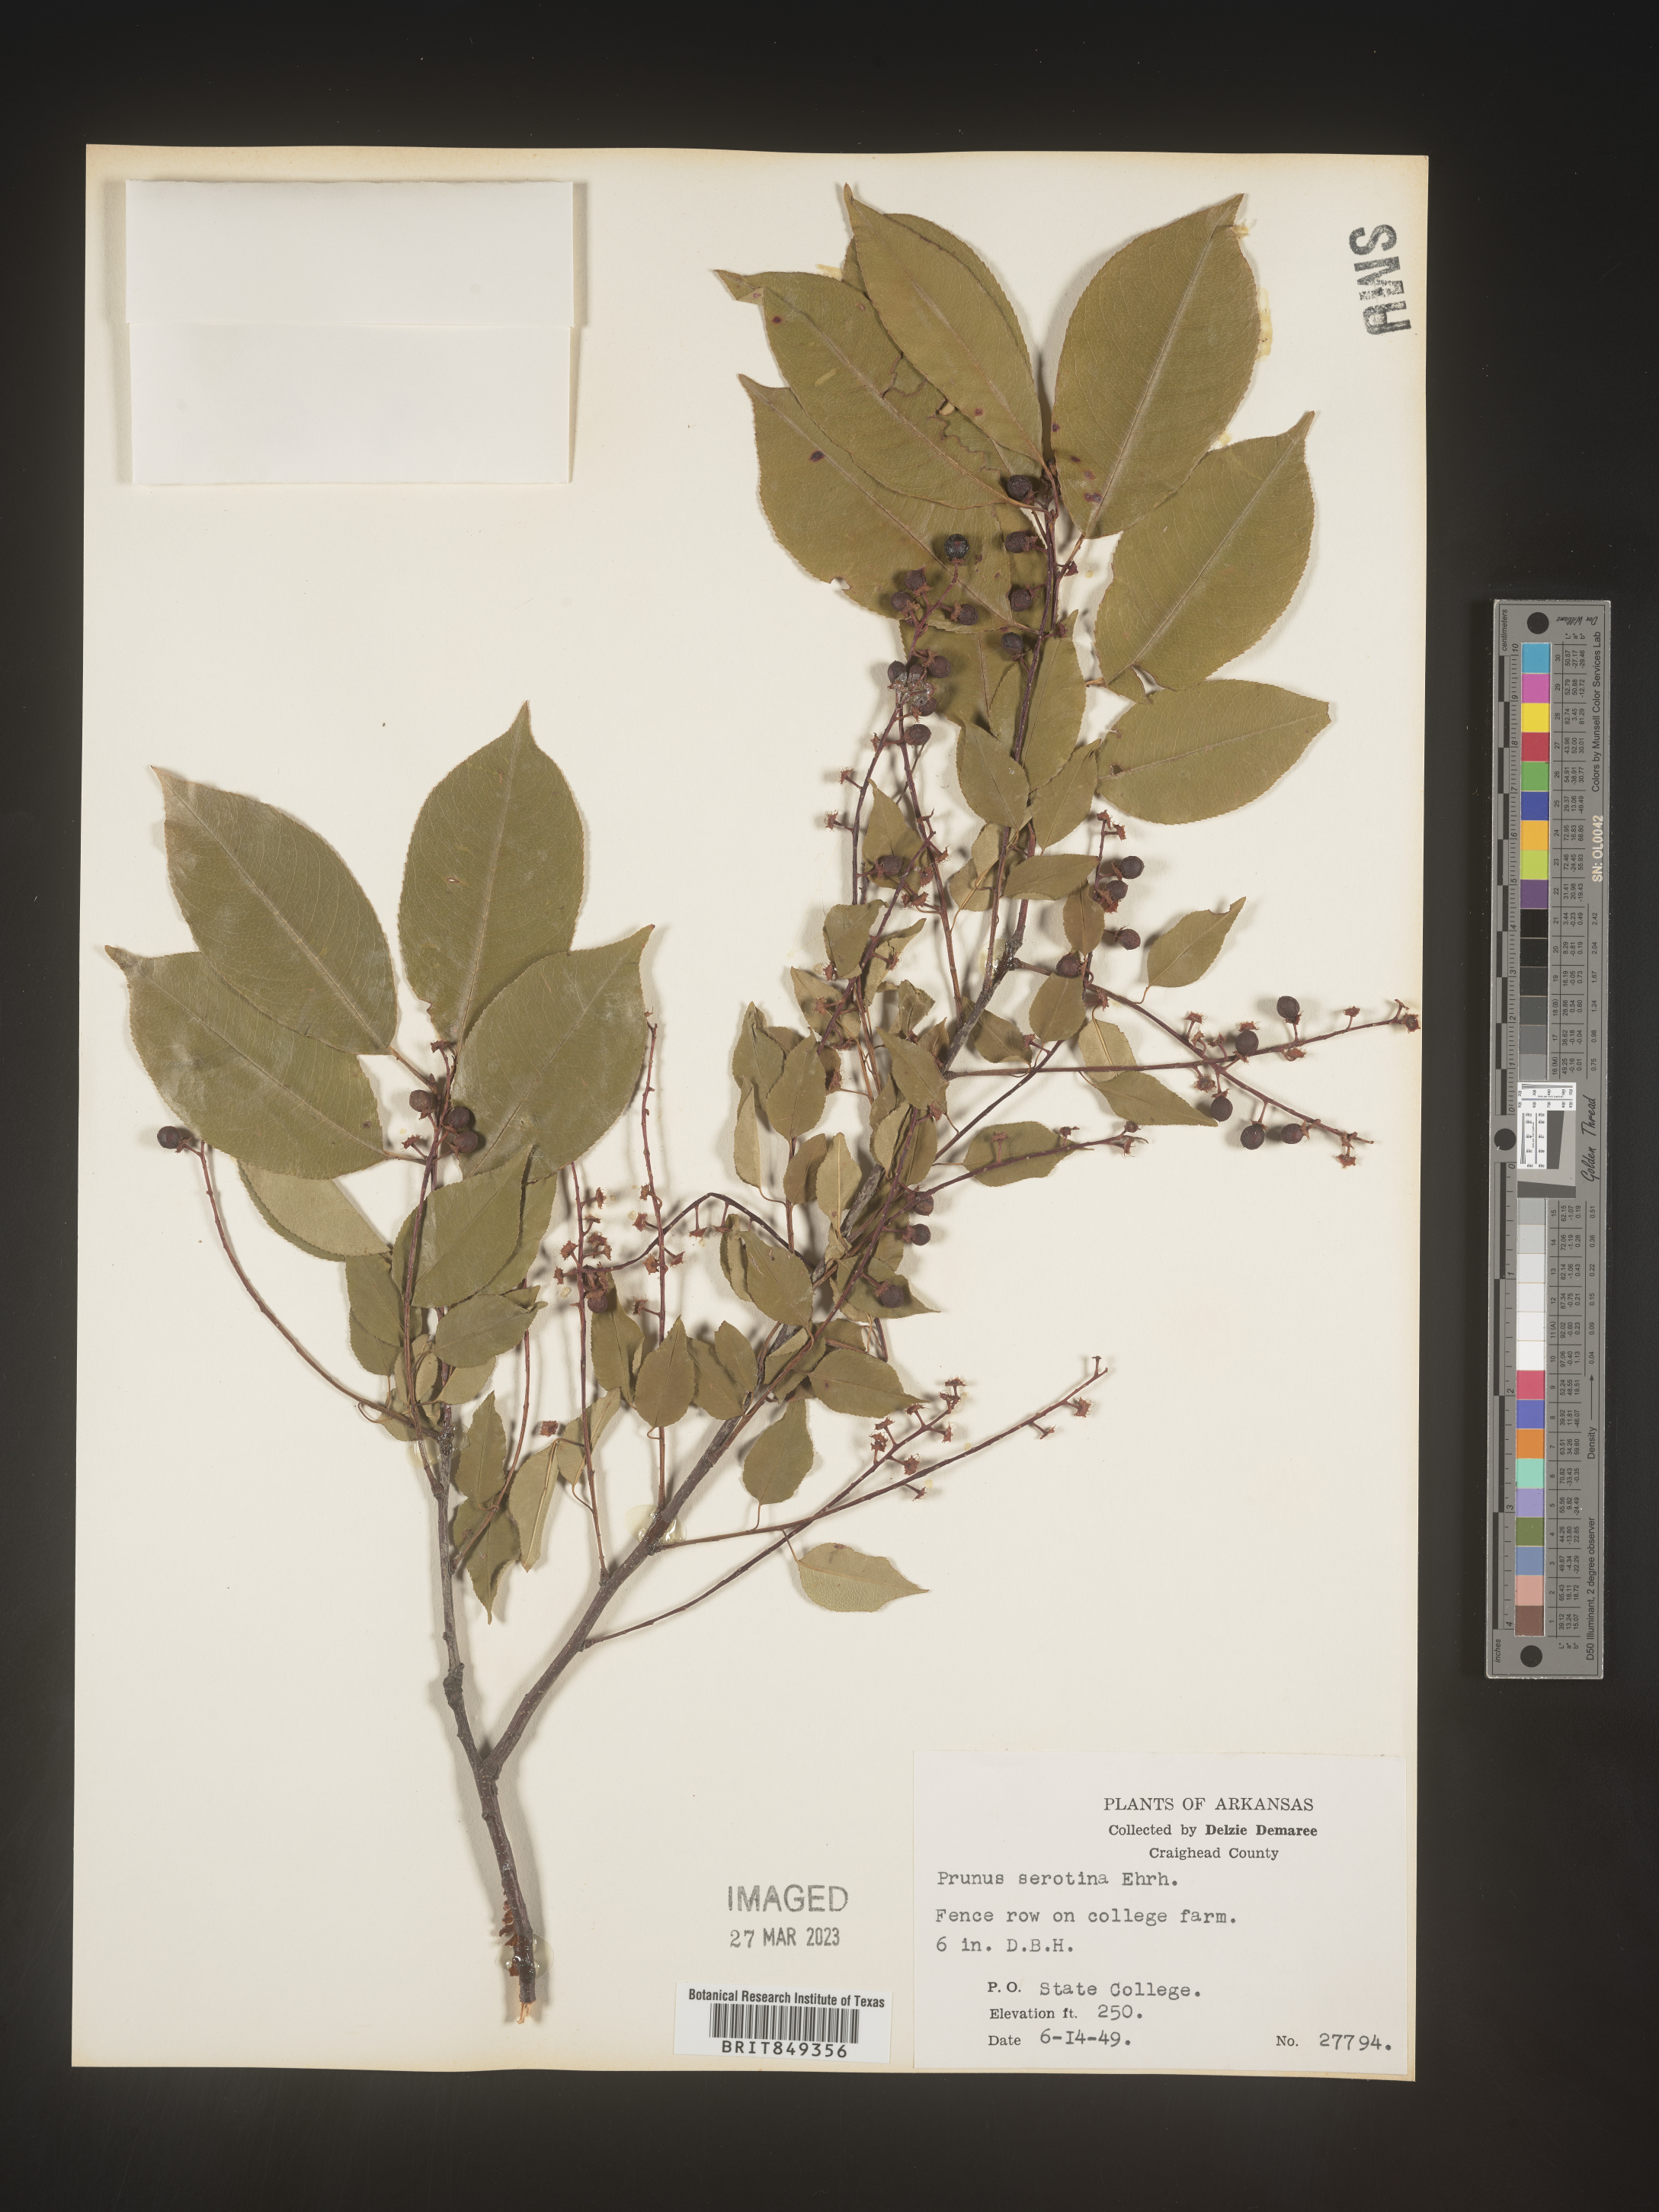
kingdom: Plantae
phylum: Tracheophyta
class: Magnoliopsida
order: Rosales
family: Rosaceae
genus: Prunus
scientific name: Prunus serotina
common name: Black cherry
